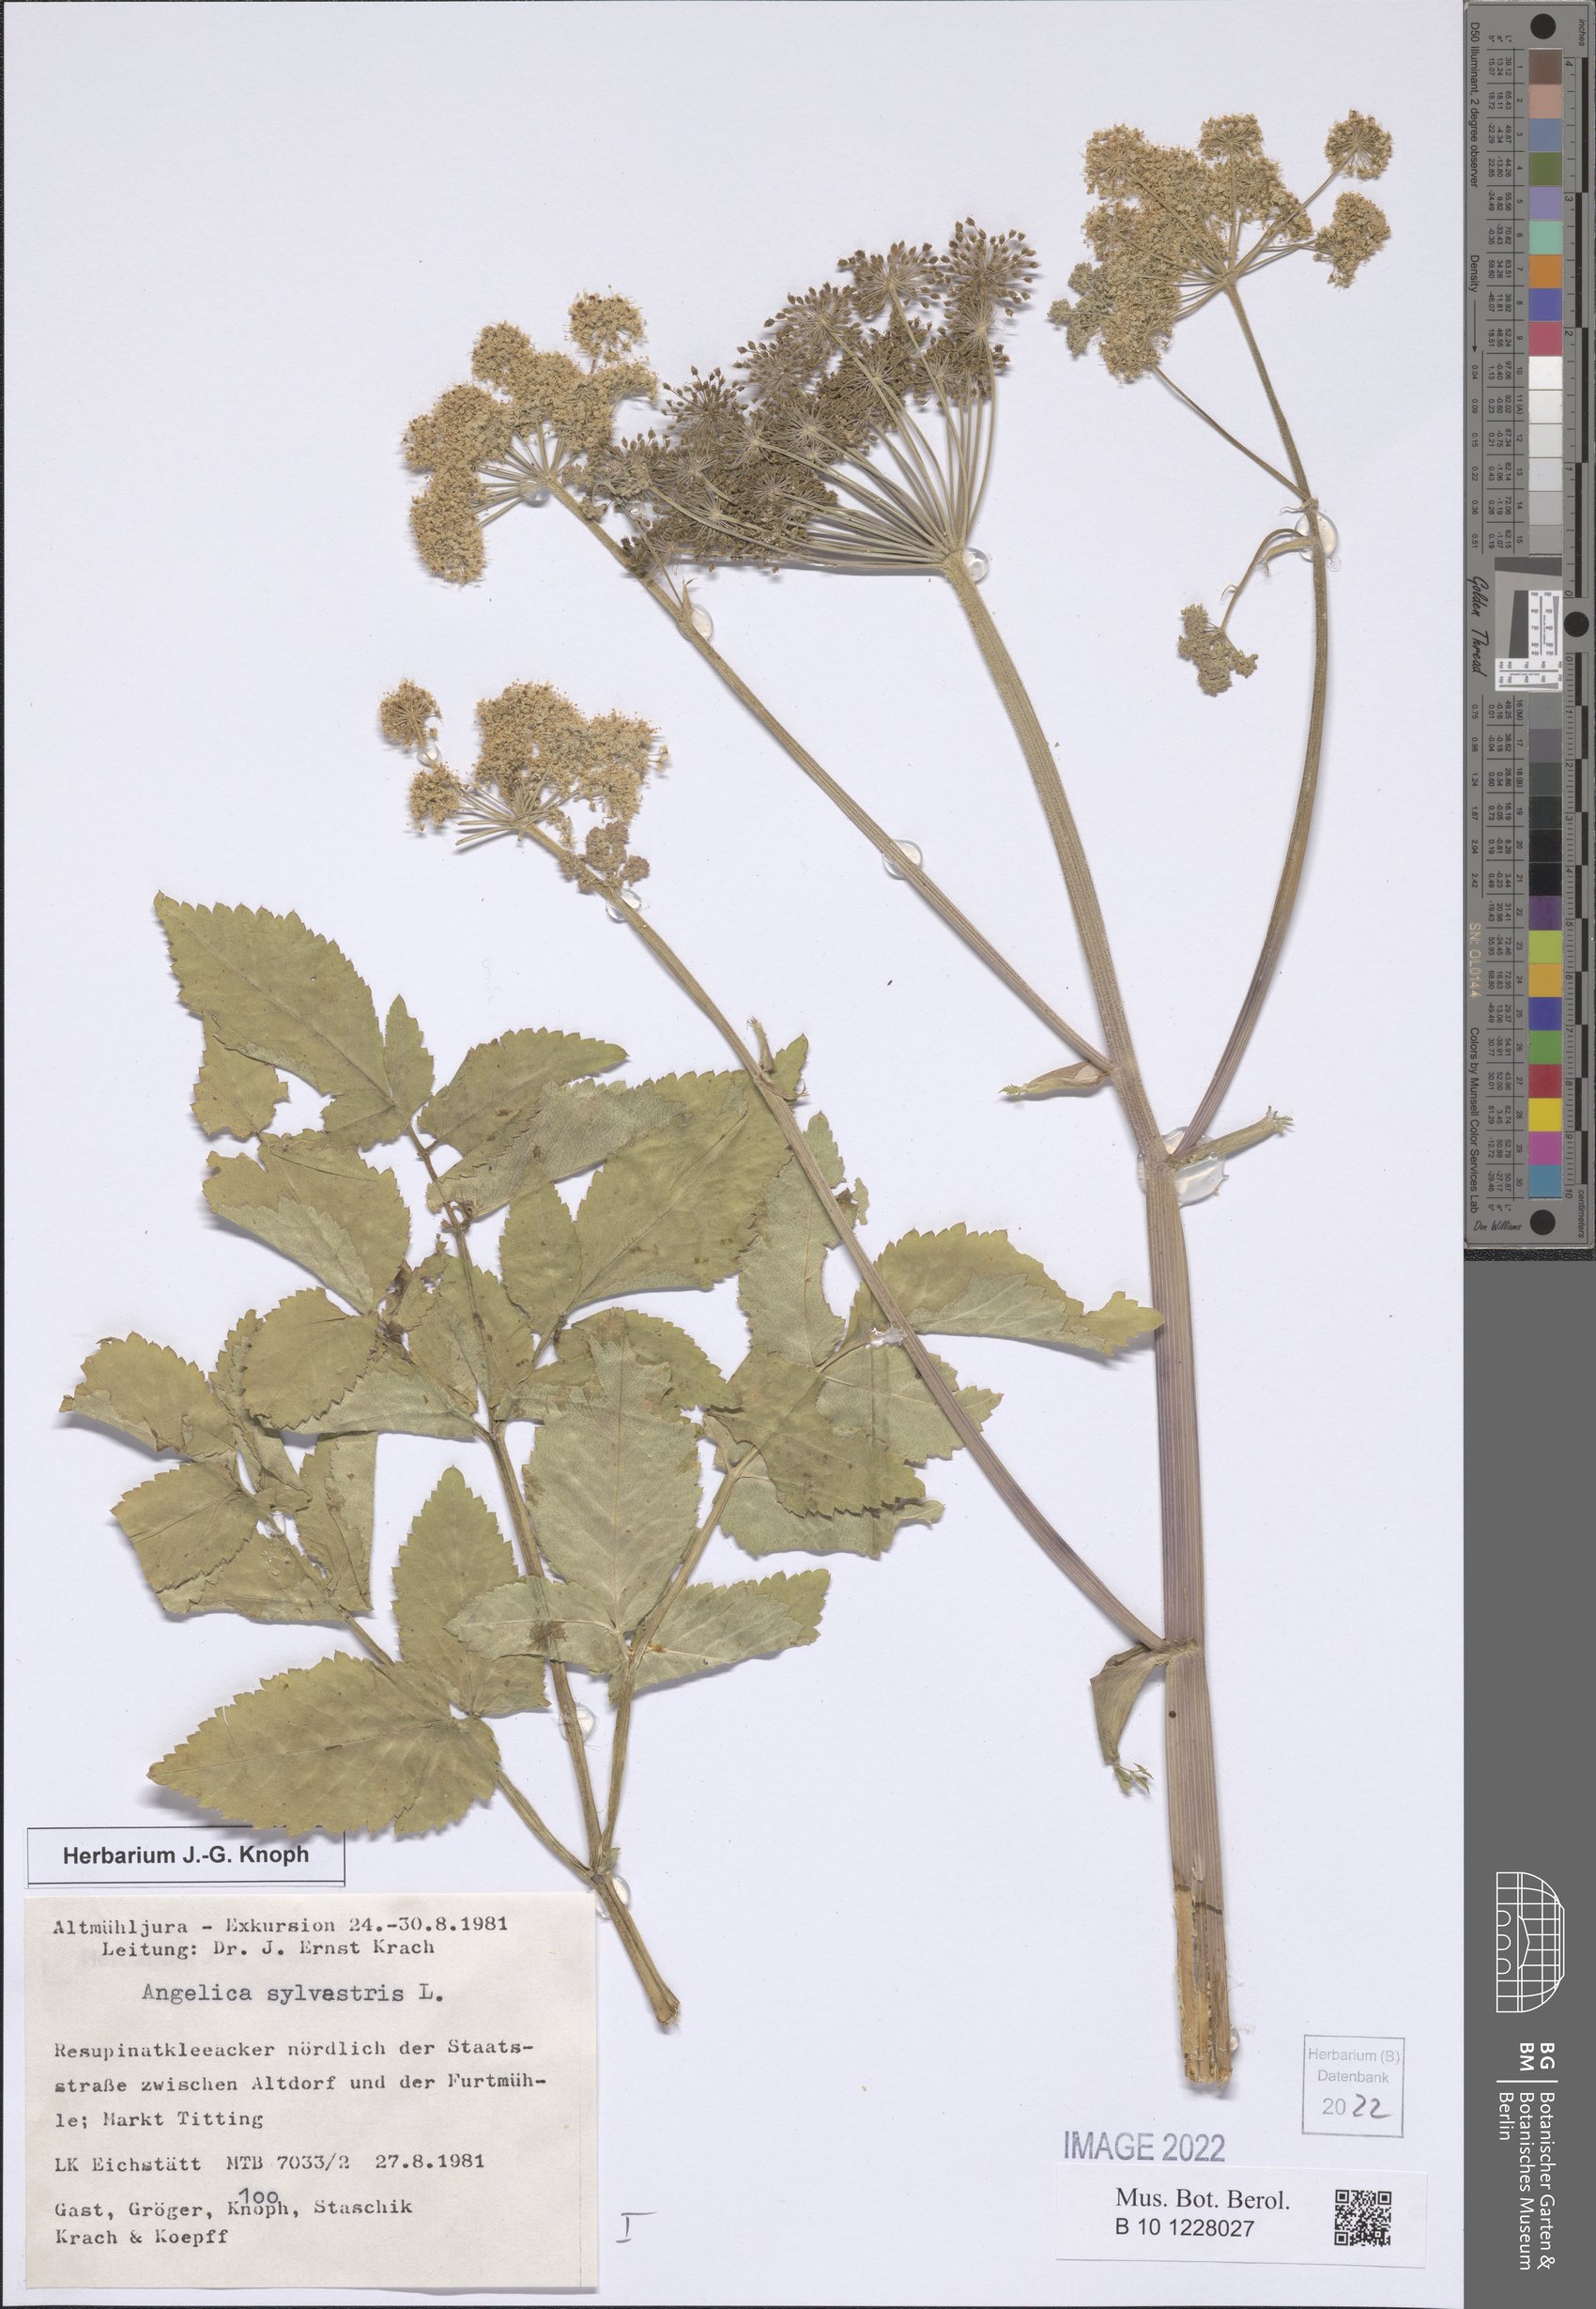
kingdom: Plantae
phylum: Tracheophyta
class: Magnoliopsida
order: Apiales
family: Apiaceae
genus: Angelica
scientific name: Angelica sylvestris
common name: Wild angelica
